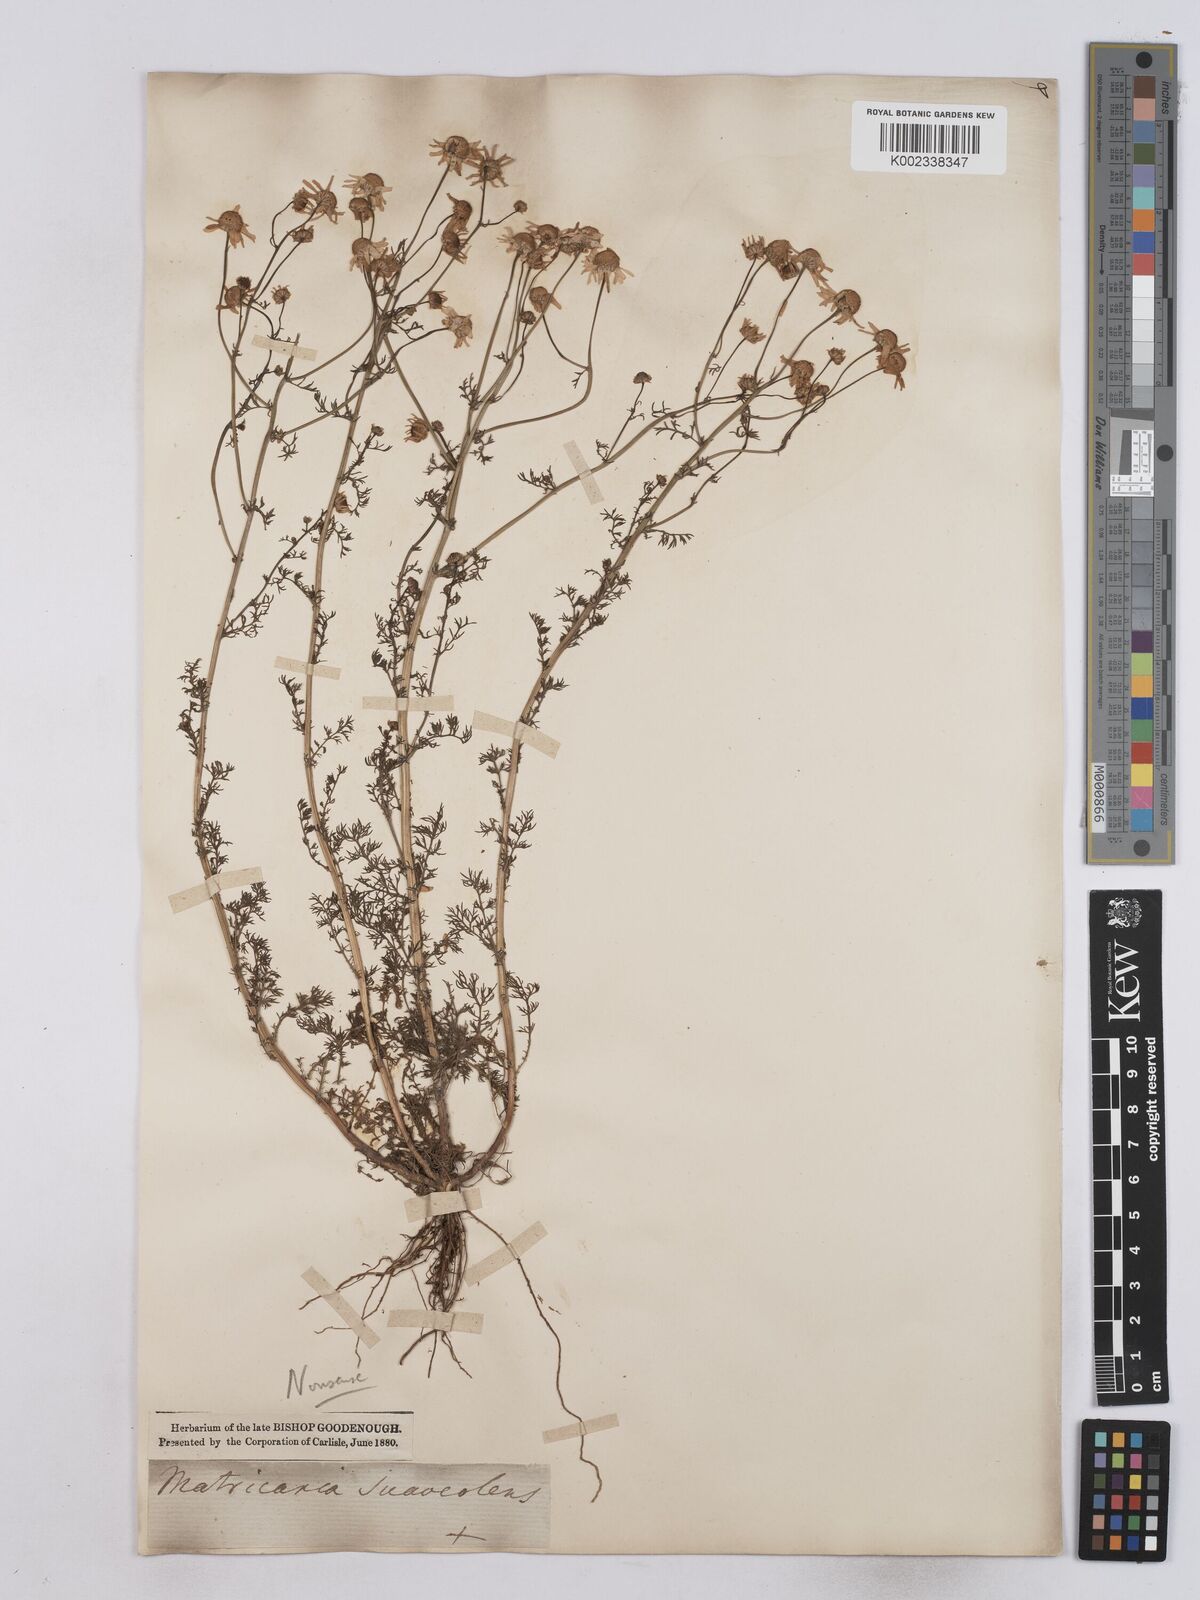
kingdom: Plantae
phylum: Tracheophyta
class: Magnoliopsida
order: Asterales
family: Asteraceae
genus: Matricaria
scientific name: Matricaria discoidea
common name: Disc mayweed
